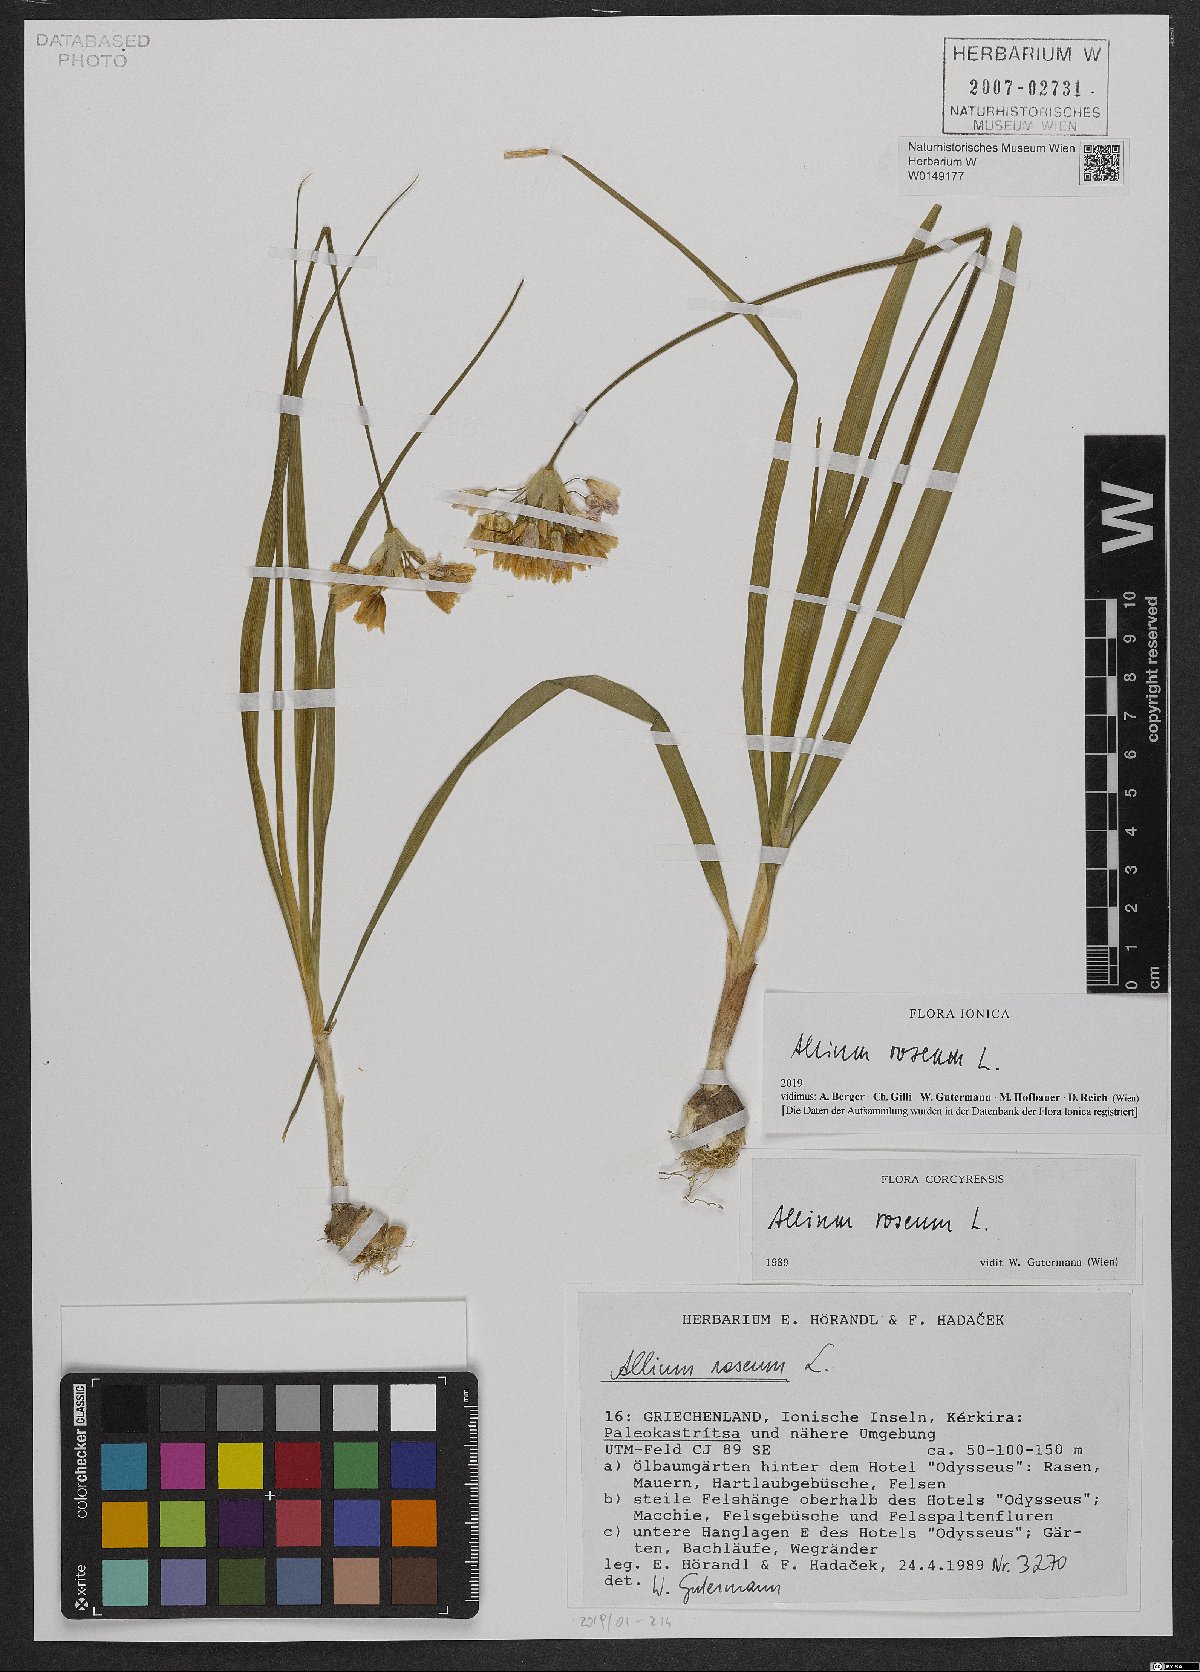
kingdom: Plantae
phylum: Tracheophyta
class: Liliopsida
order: Asparagales
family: Amaryllidaceae
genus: Allium
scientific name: Allium roseum
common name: Rosy garlic
